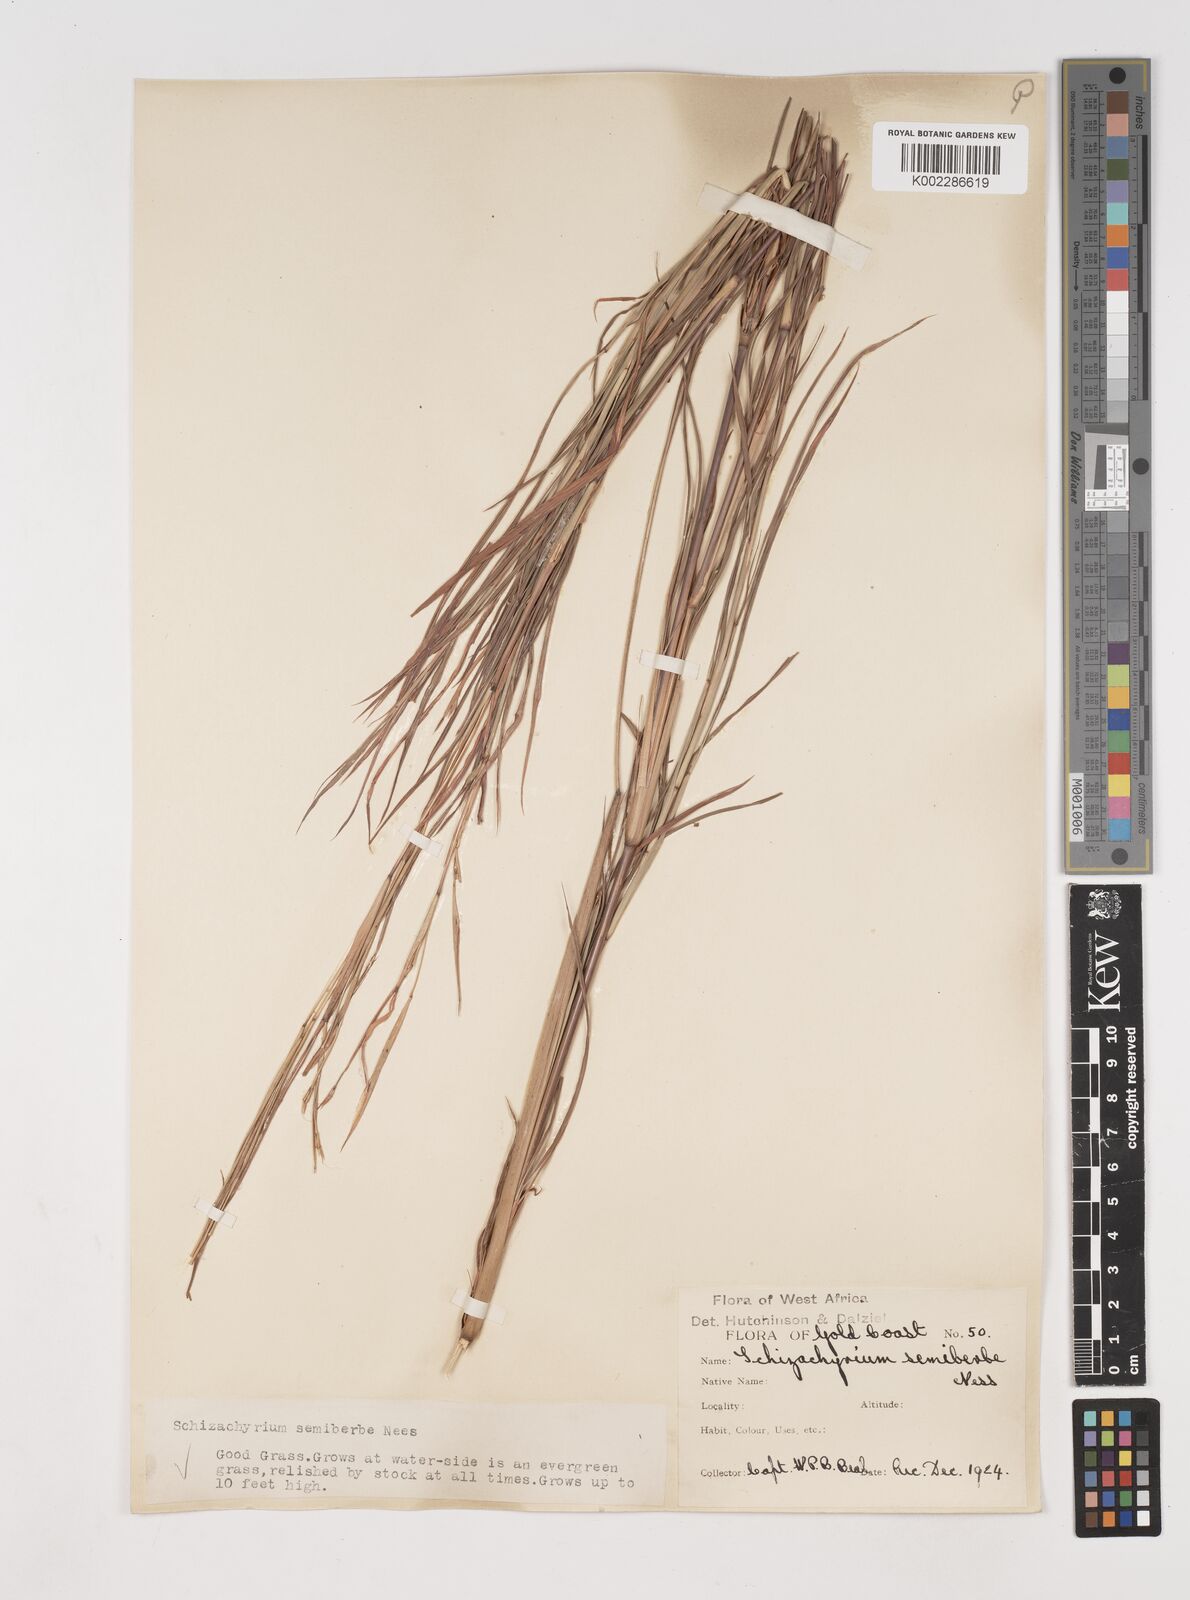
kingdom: Plantae
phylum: Tracheophyta
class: Liliopsida
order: Poales
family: Poaceae
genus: Schizachyrium
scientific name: Schizachyrium sanguineum
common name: Crimson bluestem
